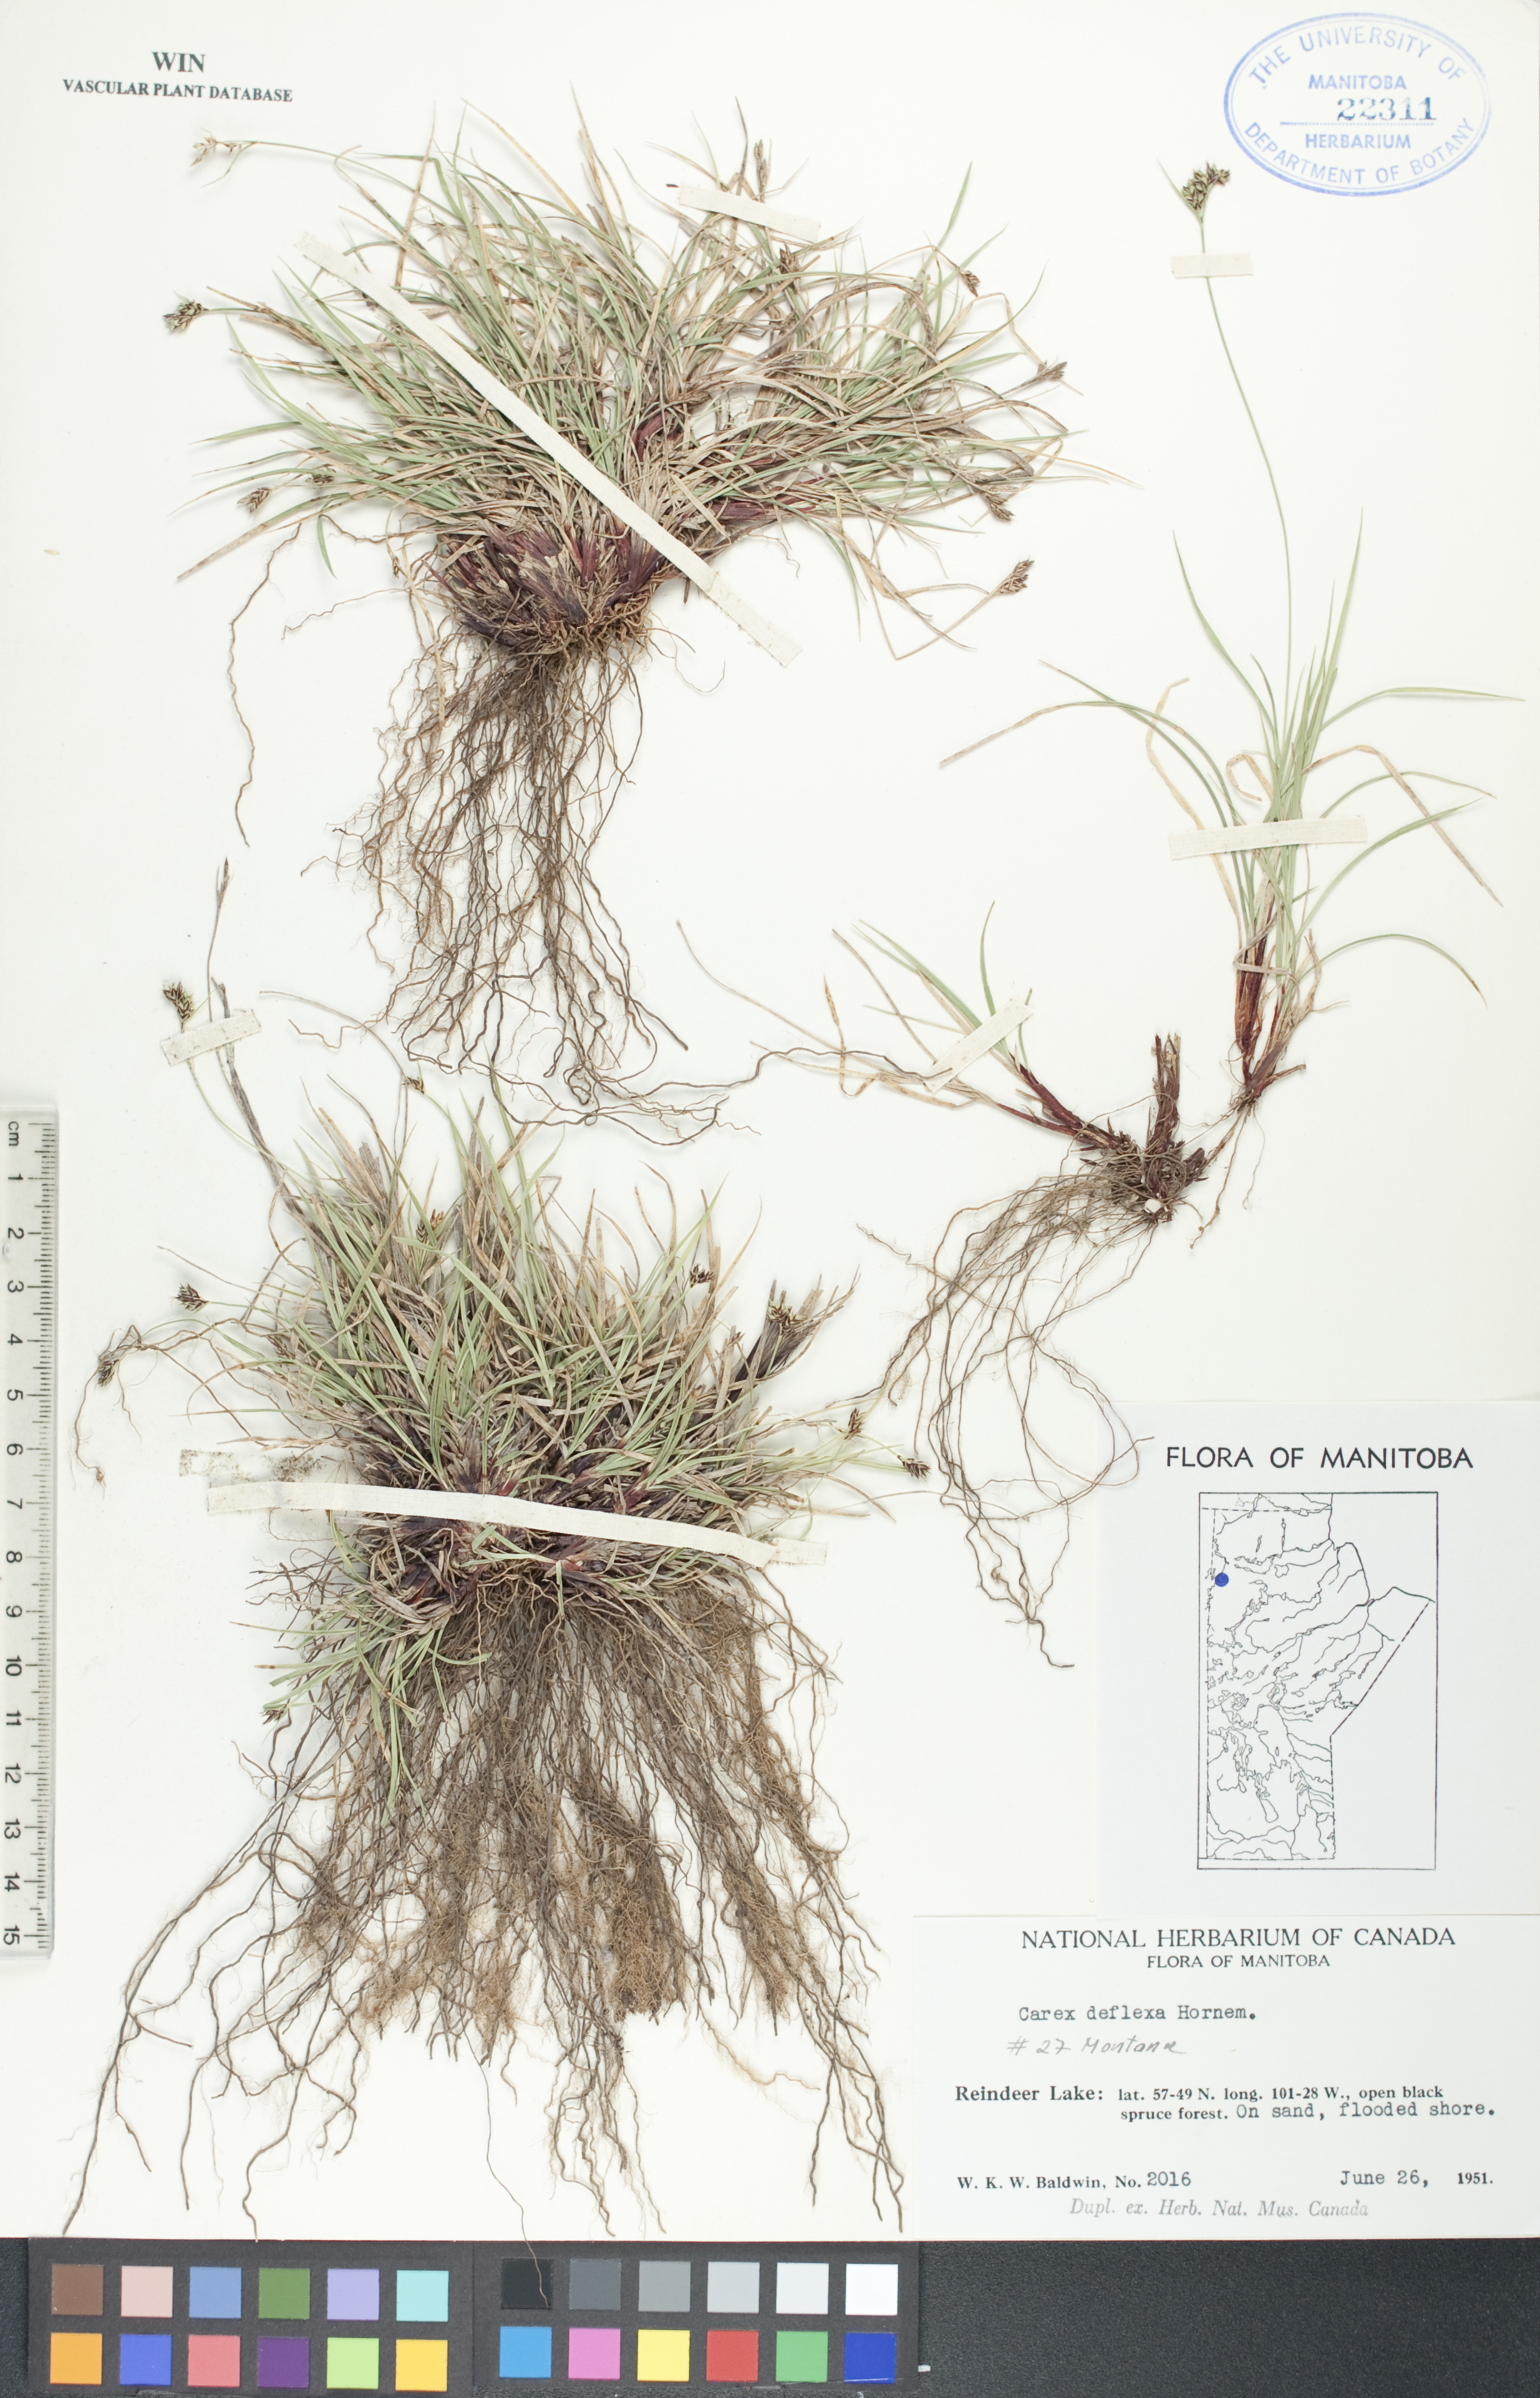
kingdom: Plantae
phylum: Tracheophyta
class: Liliopsida
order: Poales
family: Cyperaceae
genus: Carex
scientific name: Carex deflexa
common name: Bent northern sedge
